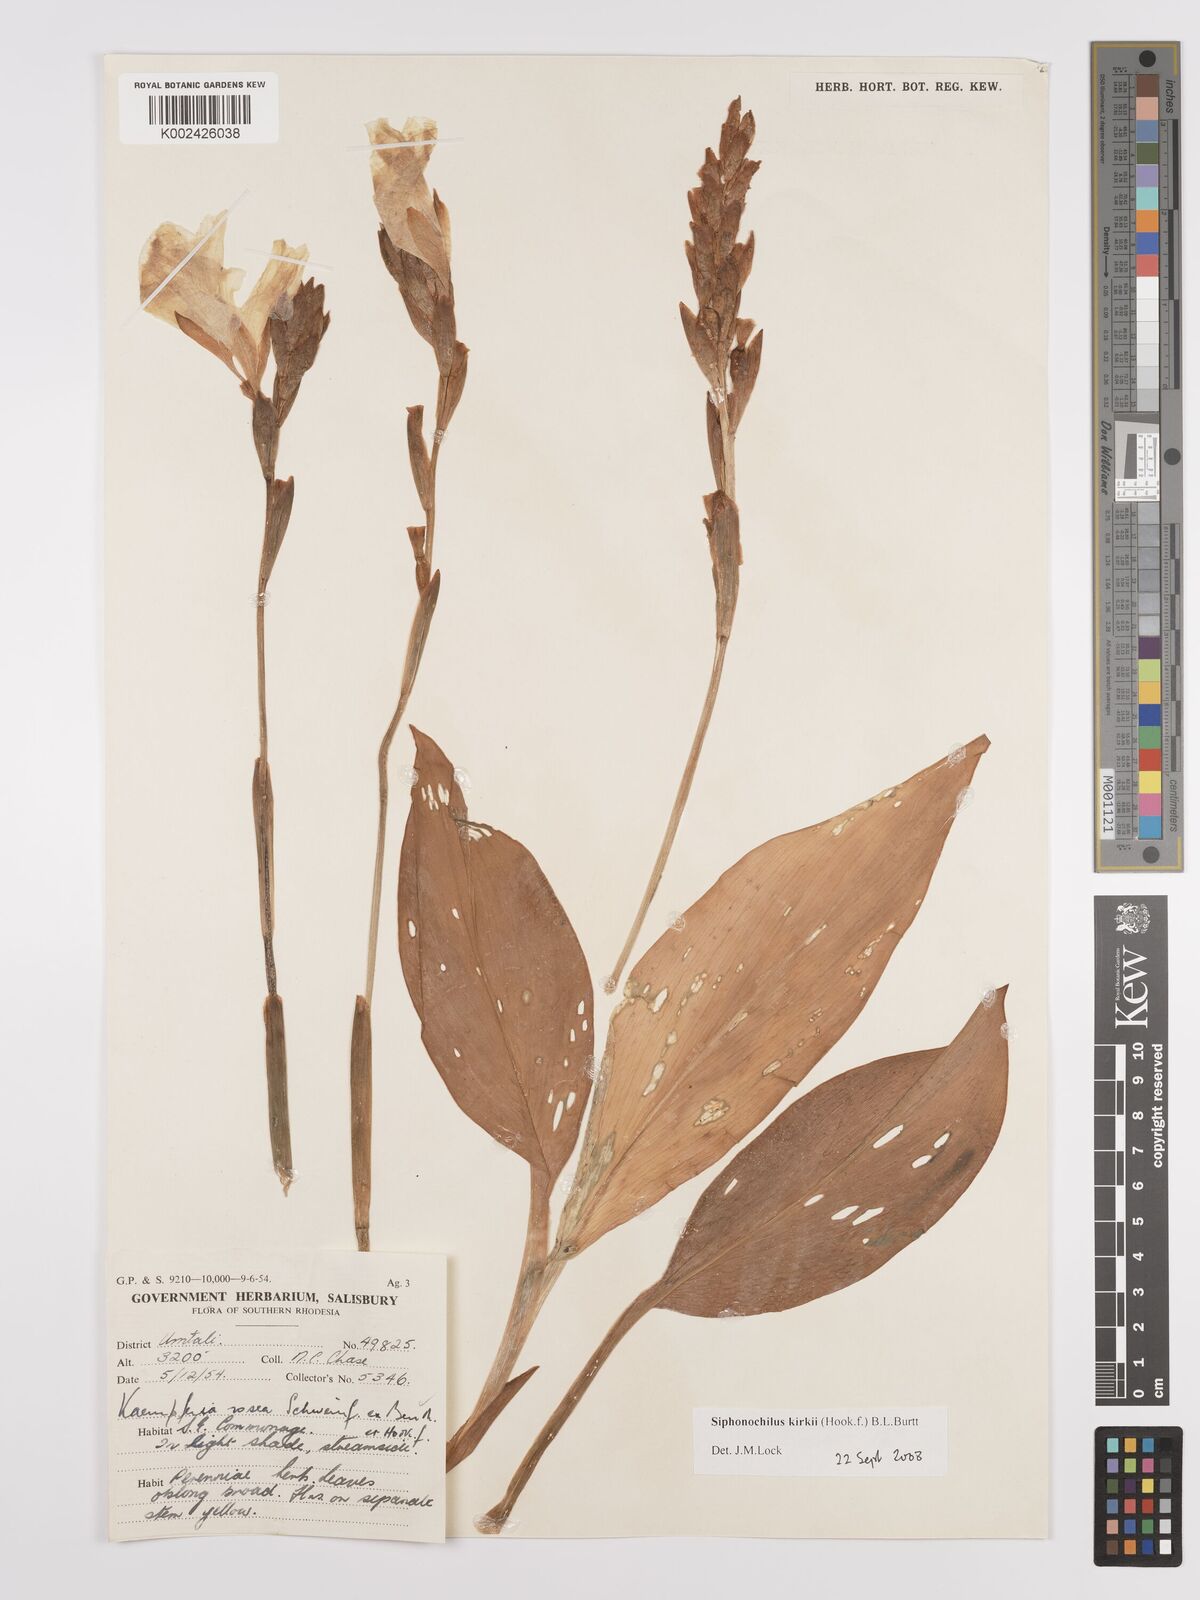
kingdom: Plantae
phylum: Tracheophyta
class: Liliopsida
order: Zingiberales
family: Zingiberaceae
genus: Siphonochilus
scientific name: Siphonochilus kirkii
